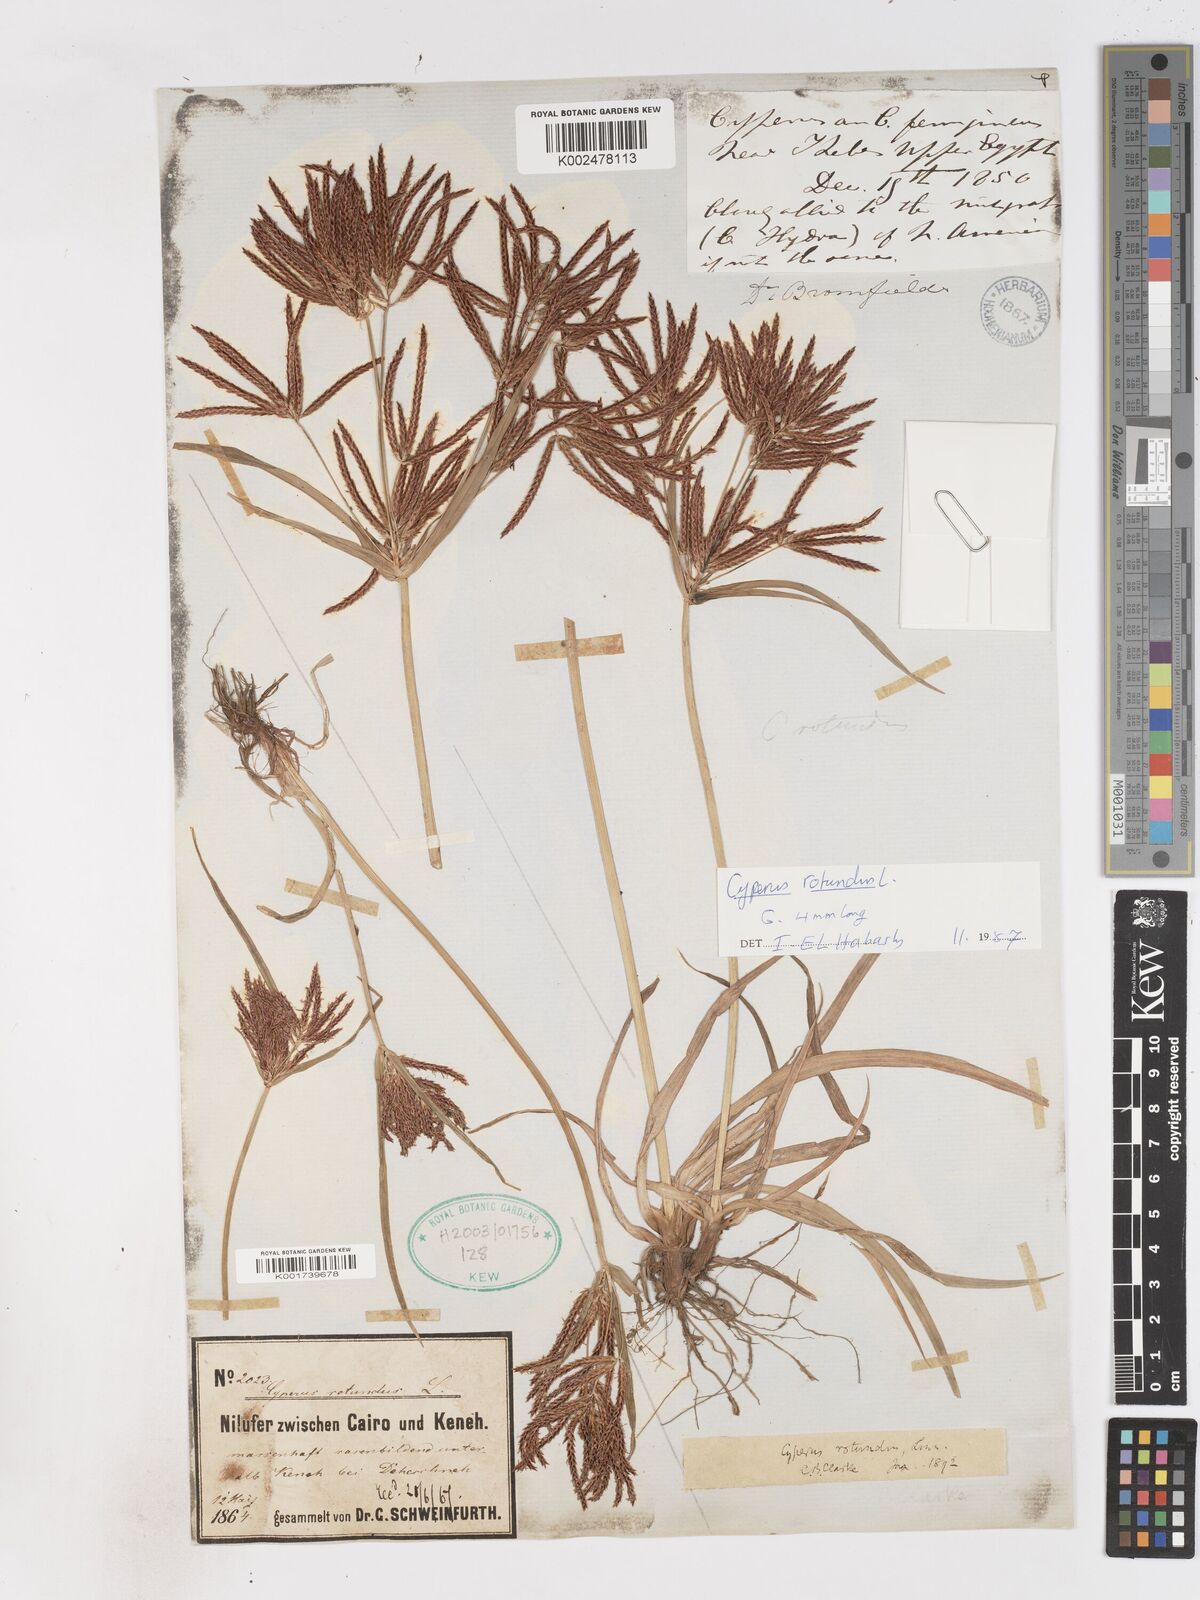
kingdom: Plantae
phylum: Tracheophyta
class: Liliopsida
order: Poales
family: Cyperaceae
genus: Cyperus
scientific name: Cyperus rotundus
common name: Nutgrass
